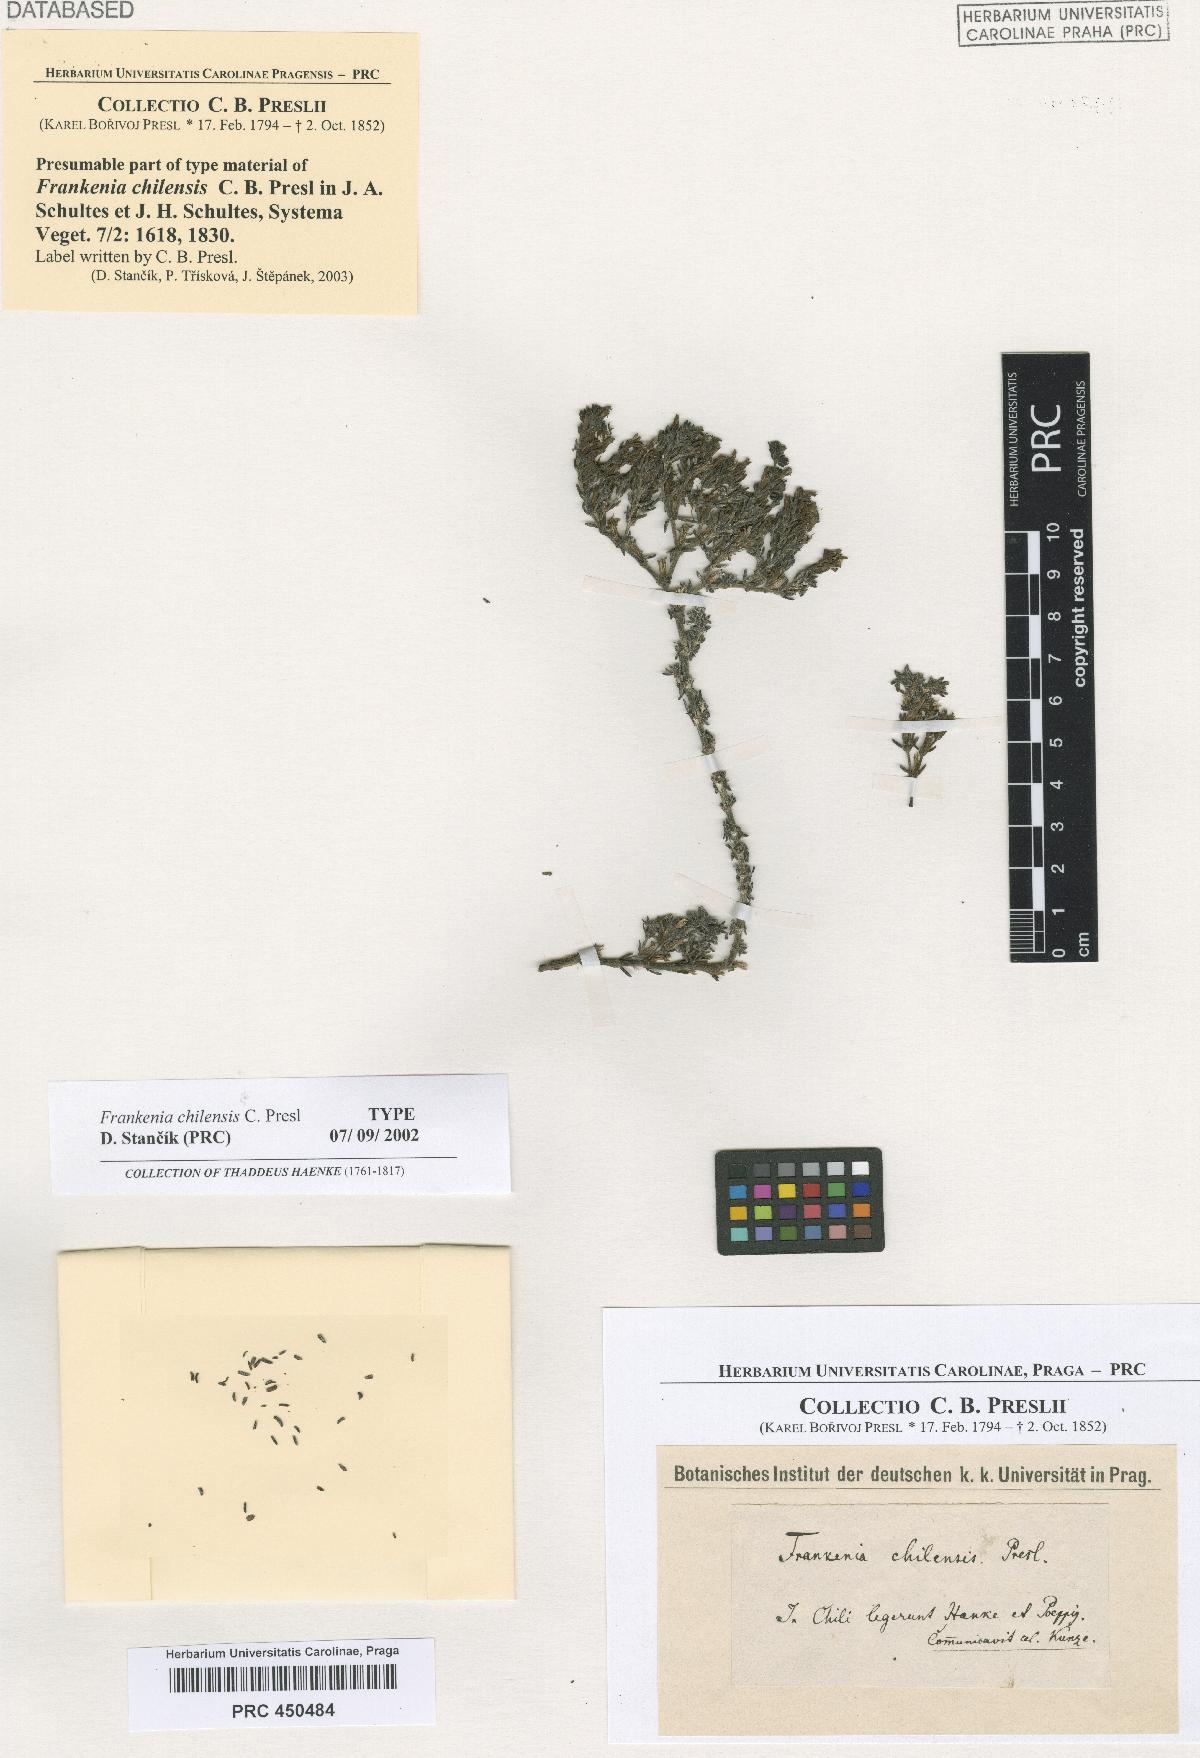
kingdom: Plantae
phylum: Tracheophyta
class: Magnoliopsida
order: Caryophyllales
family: Frankeniaceae
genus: Frankenia
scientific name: Frankenia chilensis
